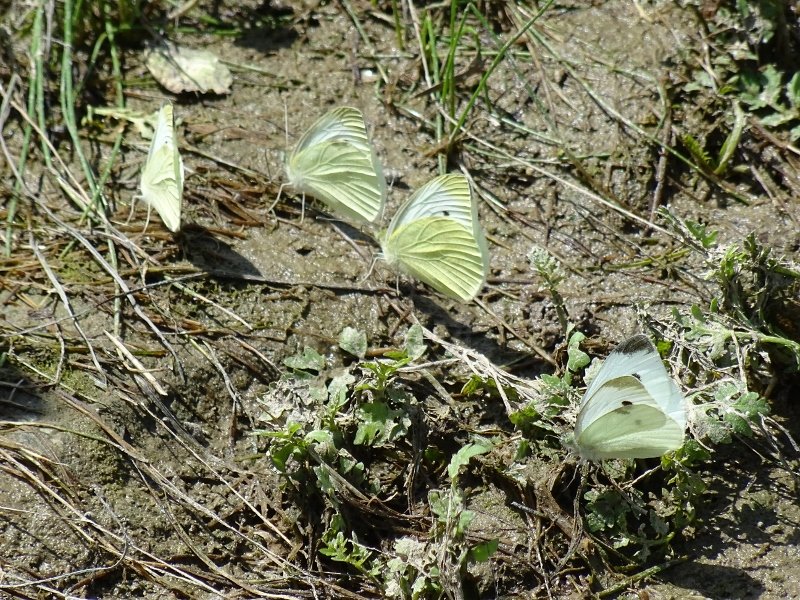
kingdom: Animalia
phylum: Arthropoda
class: Insecta
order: Lepidoptera
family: Pieridae
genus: Pieris
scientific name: Pieris rapae
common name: Cabbage White
